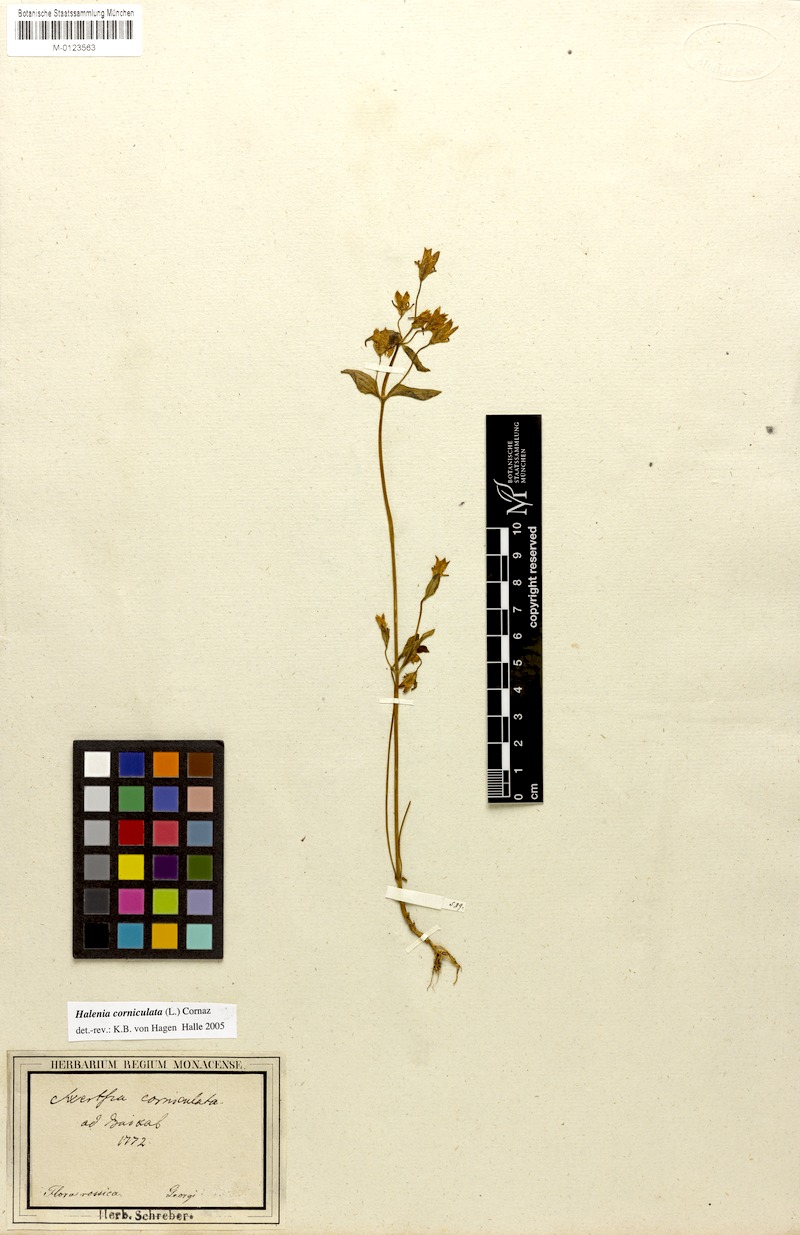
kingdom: Plantae
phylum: Tracheophyta
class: Magnoliopsida
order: Gentianales
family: Gentianaceae
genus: Halenia
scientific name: Halenia corniculata
